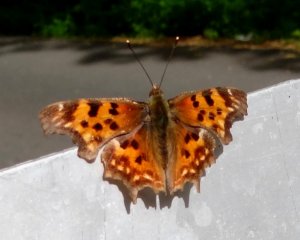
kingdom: Animalia
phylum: Arthropoda
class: Insecta
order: Lepidoptera
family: Nymphalidae
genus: Polygonia
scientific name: Polygonia oreas
